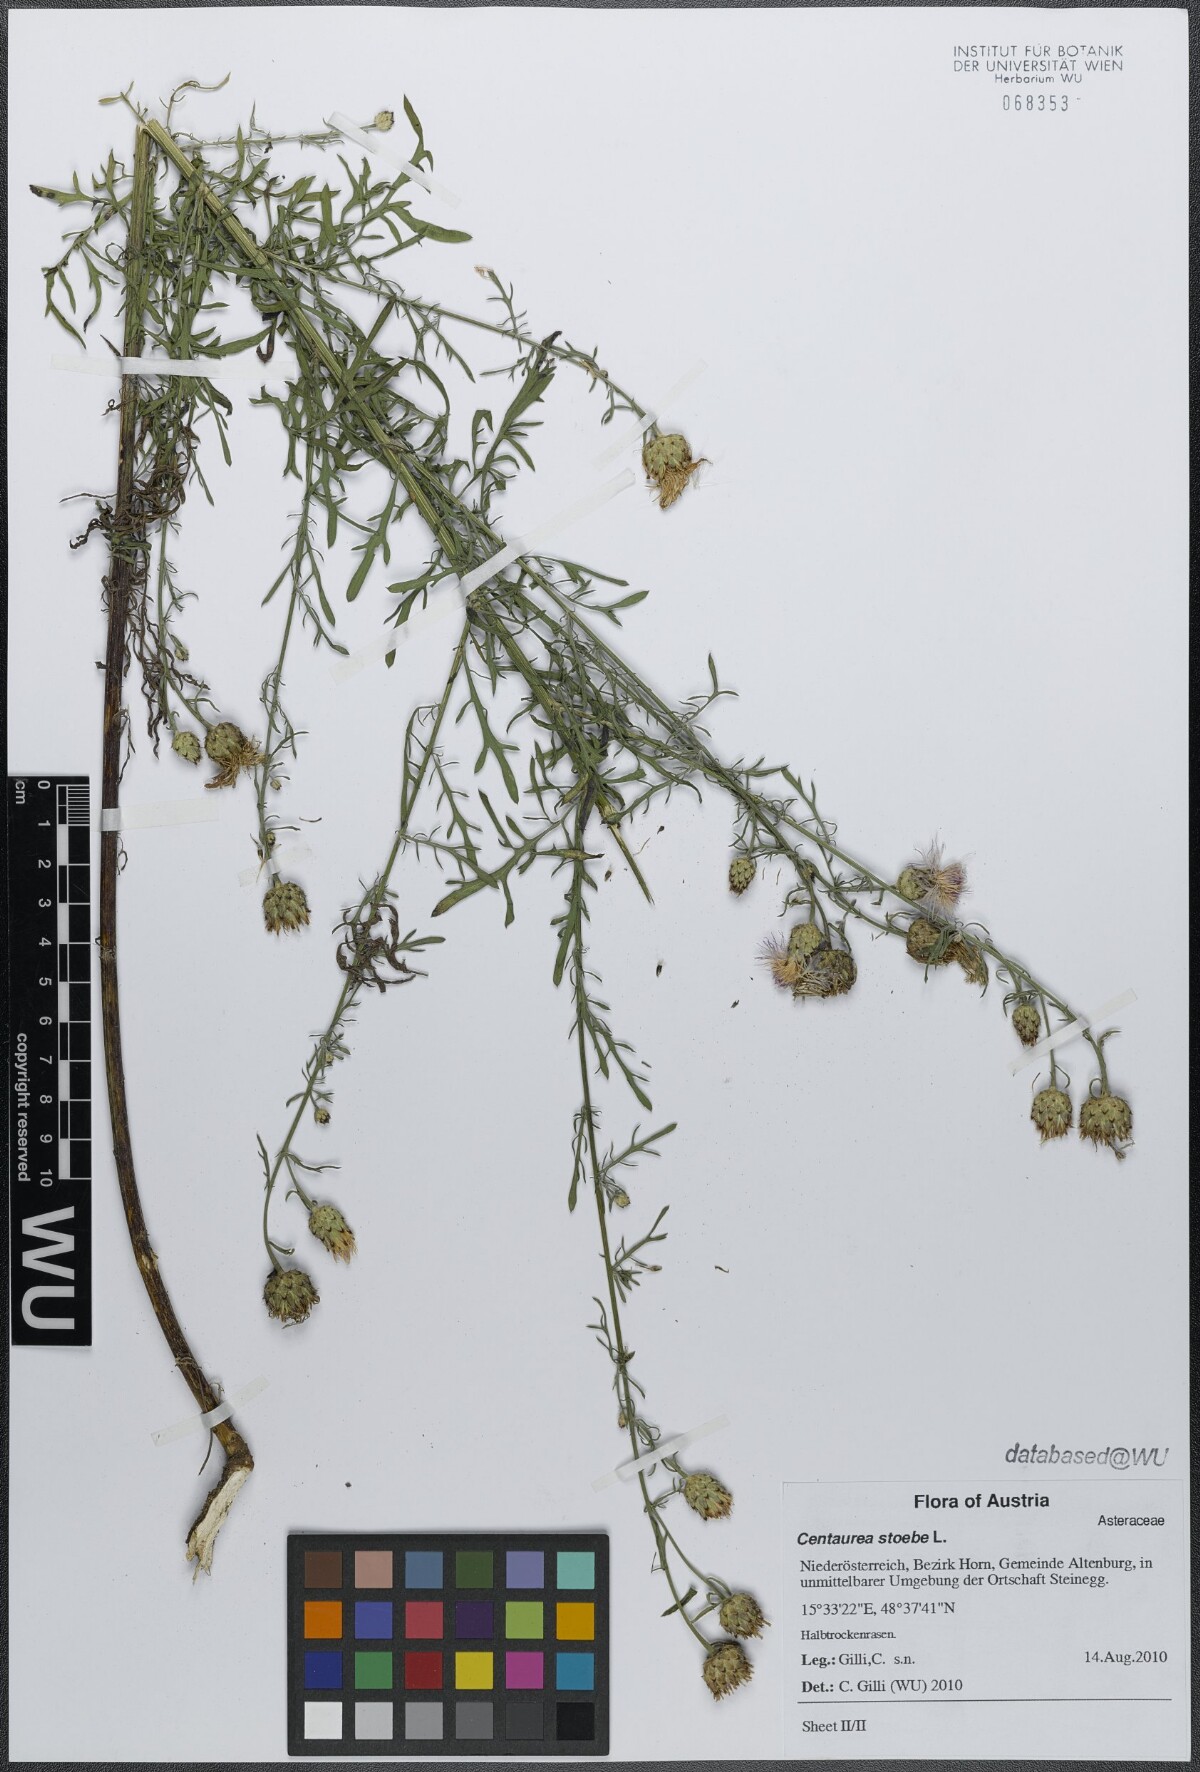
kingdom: Plantae
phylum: Tracheophyta
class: Magnoliopsida
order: Asterales
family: Asteraceae
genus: Centaurea
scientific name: Centaurea stoebe
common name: Spotted knapweed
